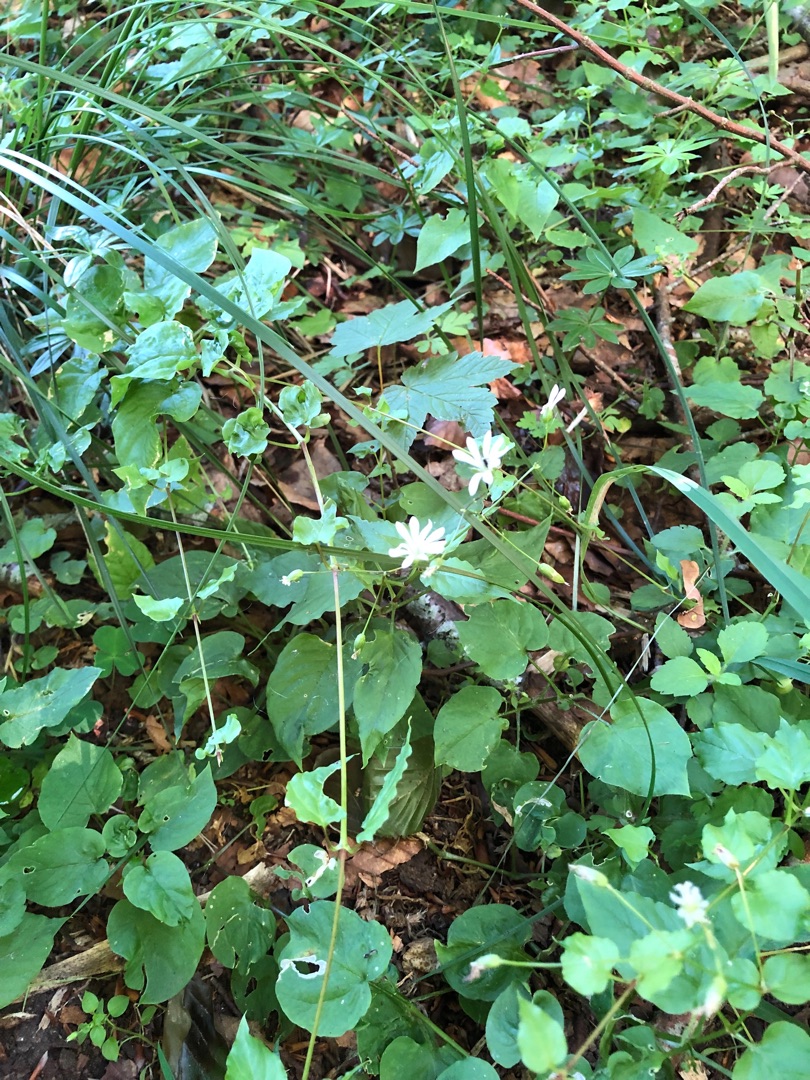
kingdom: Plantae
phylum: Tracheophyta
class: Magnoliopsida
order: Caryophyllales
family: Caryophyllaceae
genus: Stellaria
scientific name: Stellaria nemorum
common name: Lund-fladstjerne
